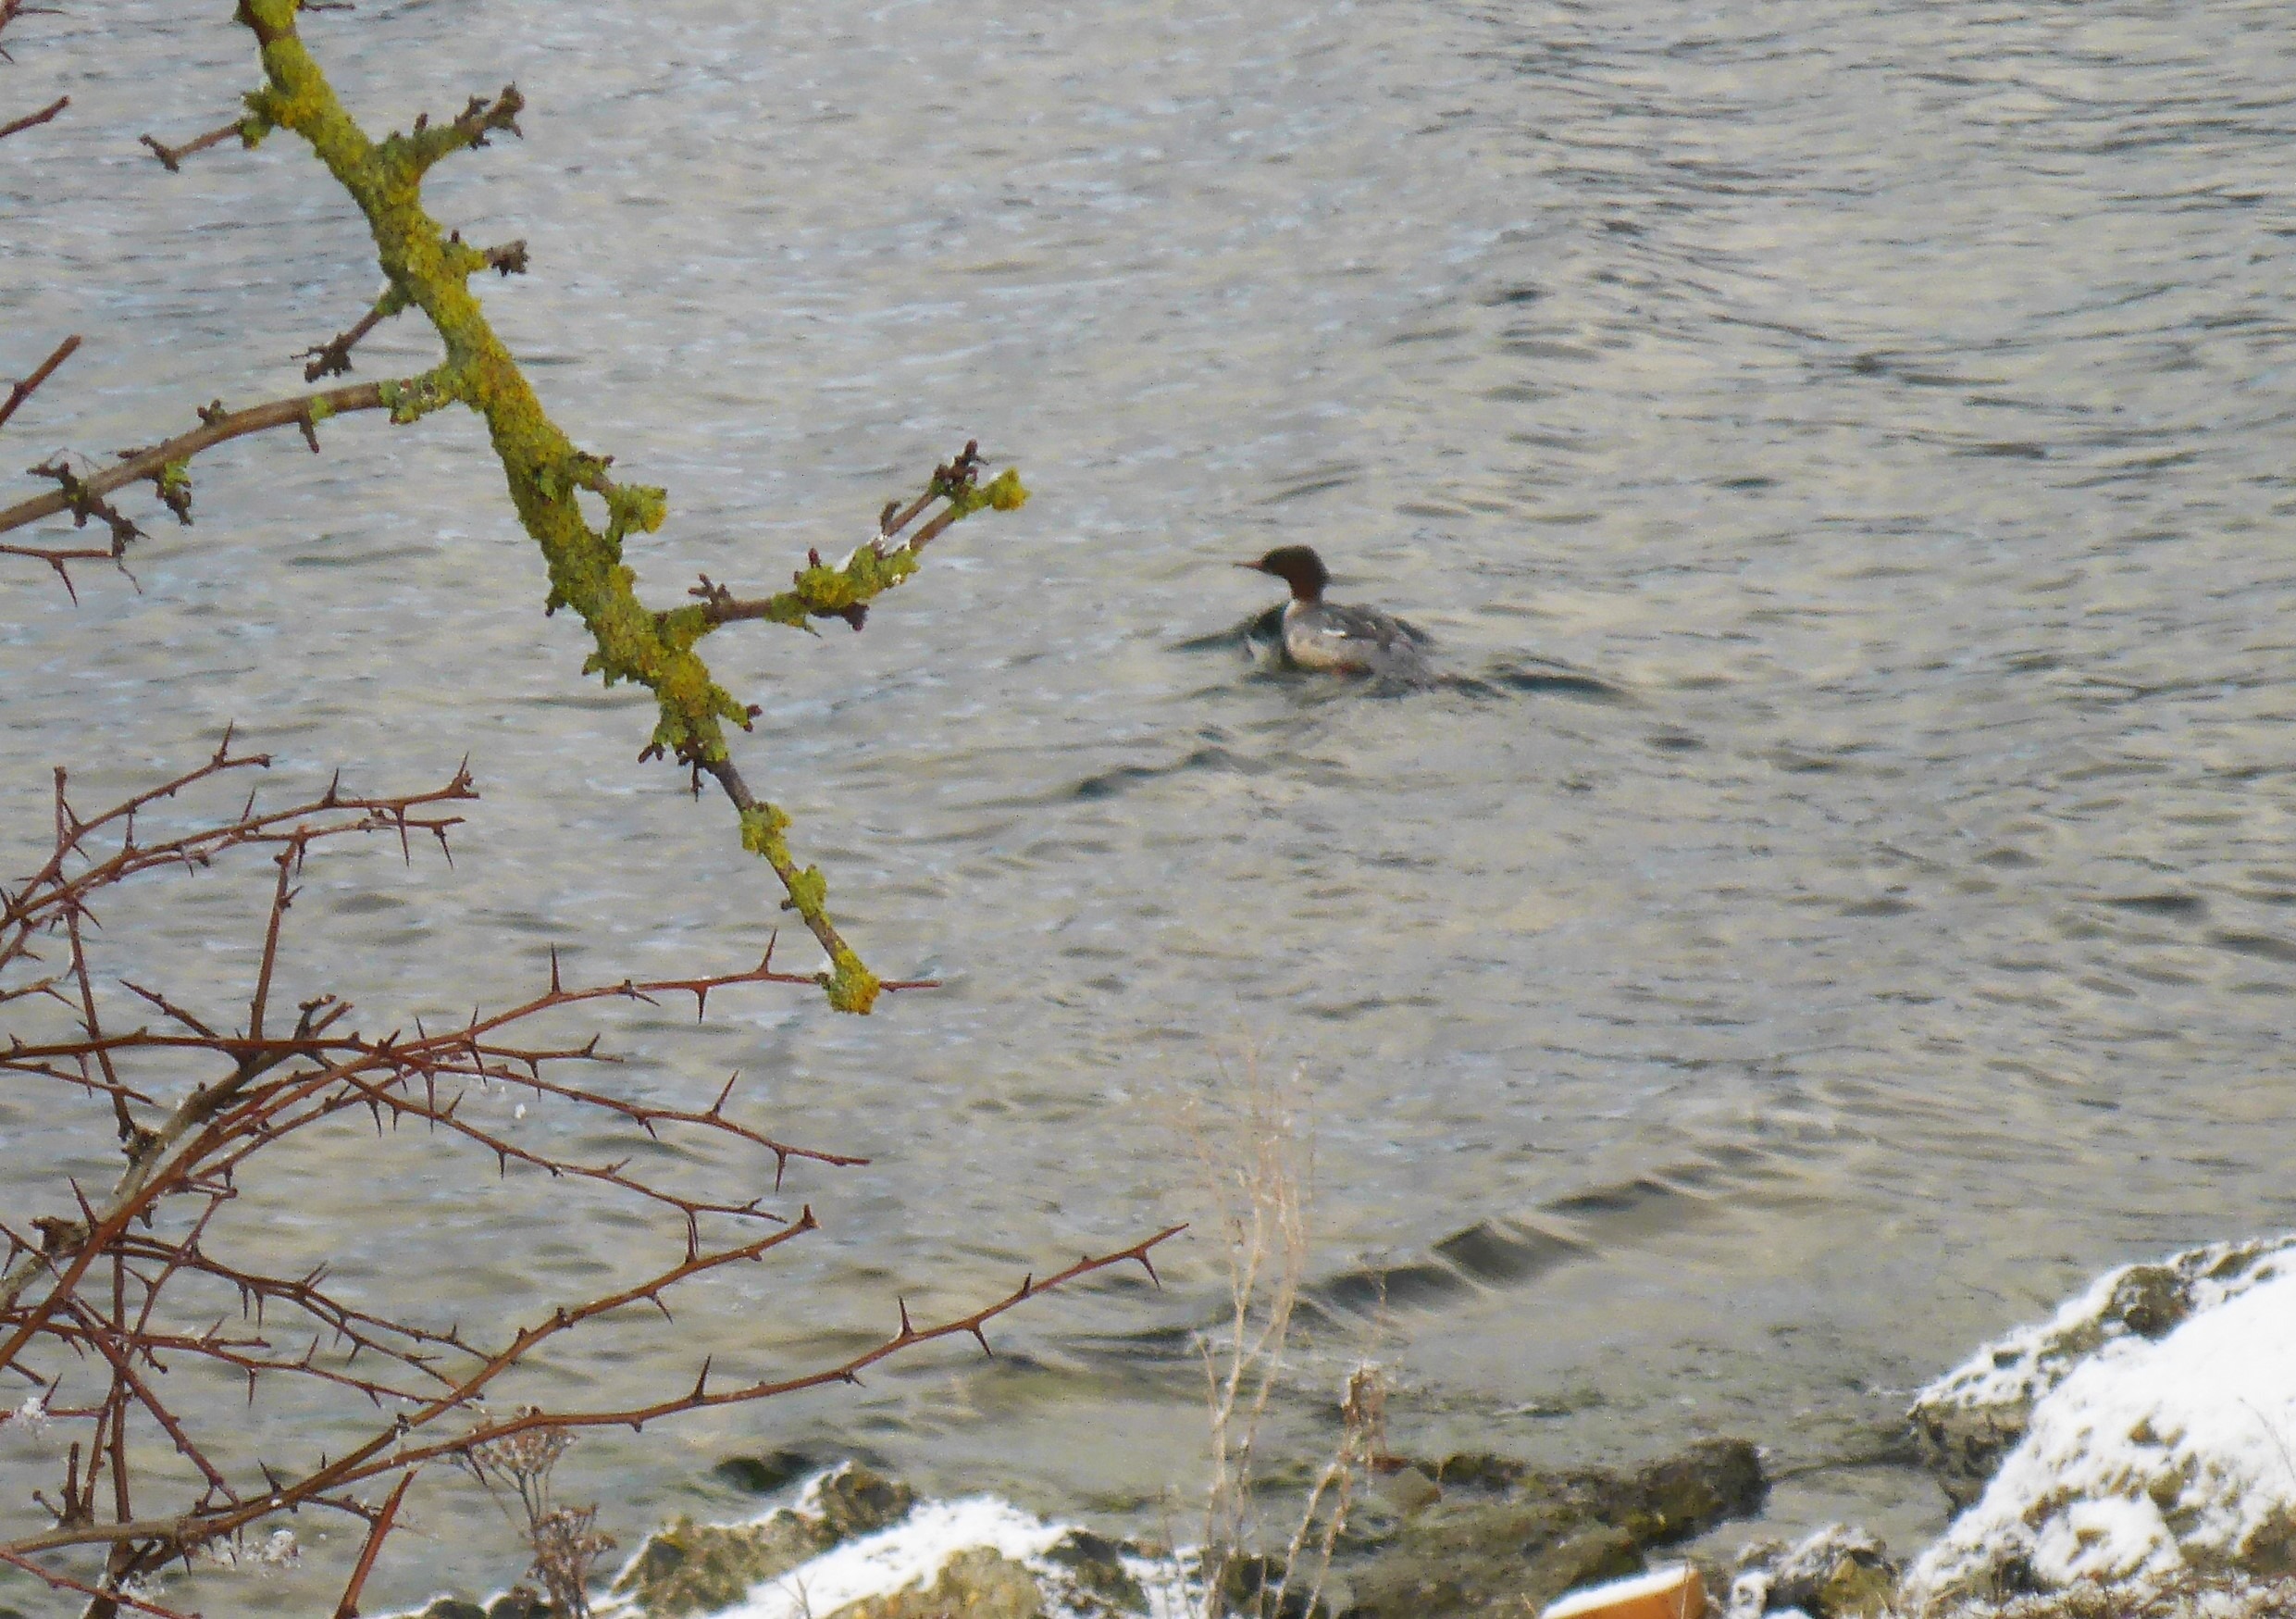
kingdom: Animalia
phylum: Chordata
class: Aves
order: Anseriformes
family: Anatidae
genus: Mergus
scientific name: Mergus merganser
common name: Stor skallesluger
